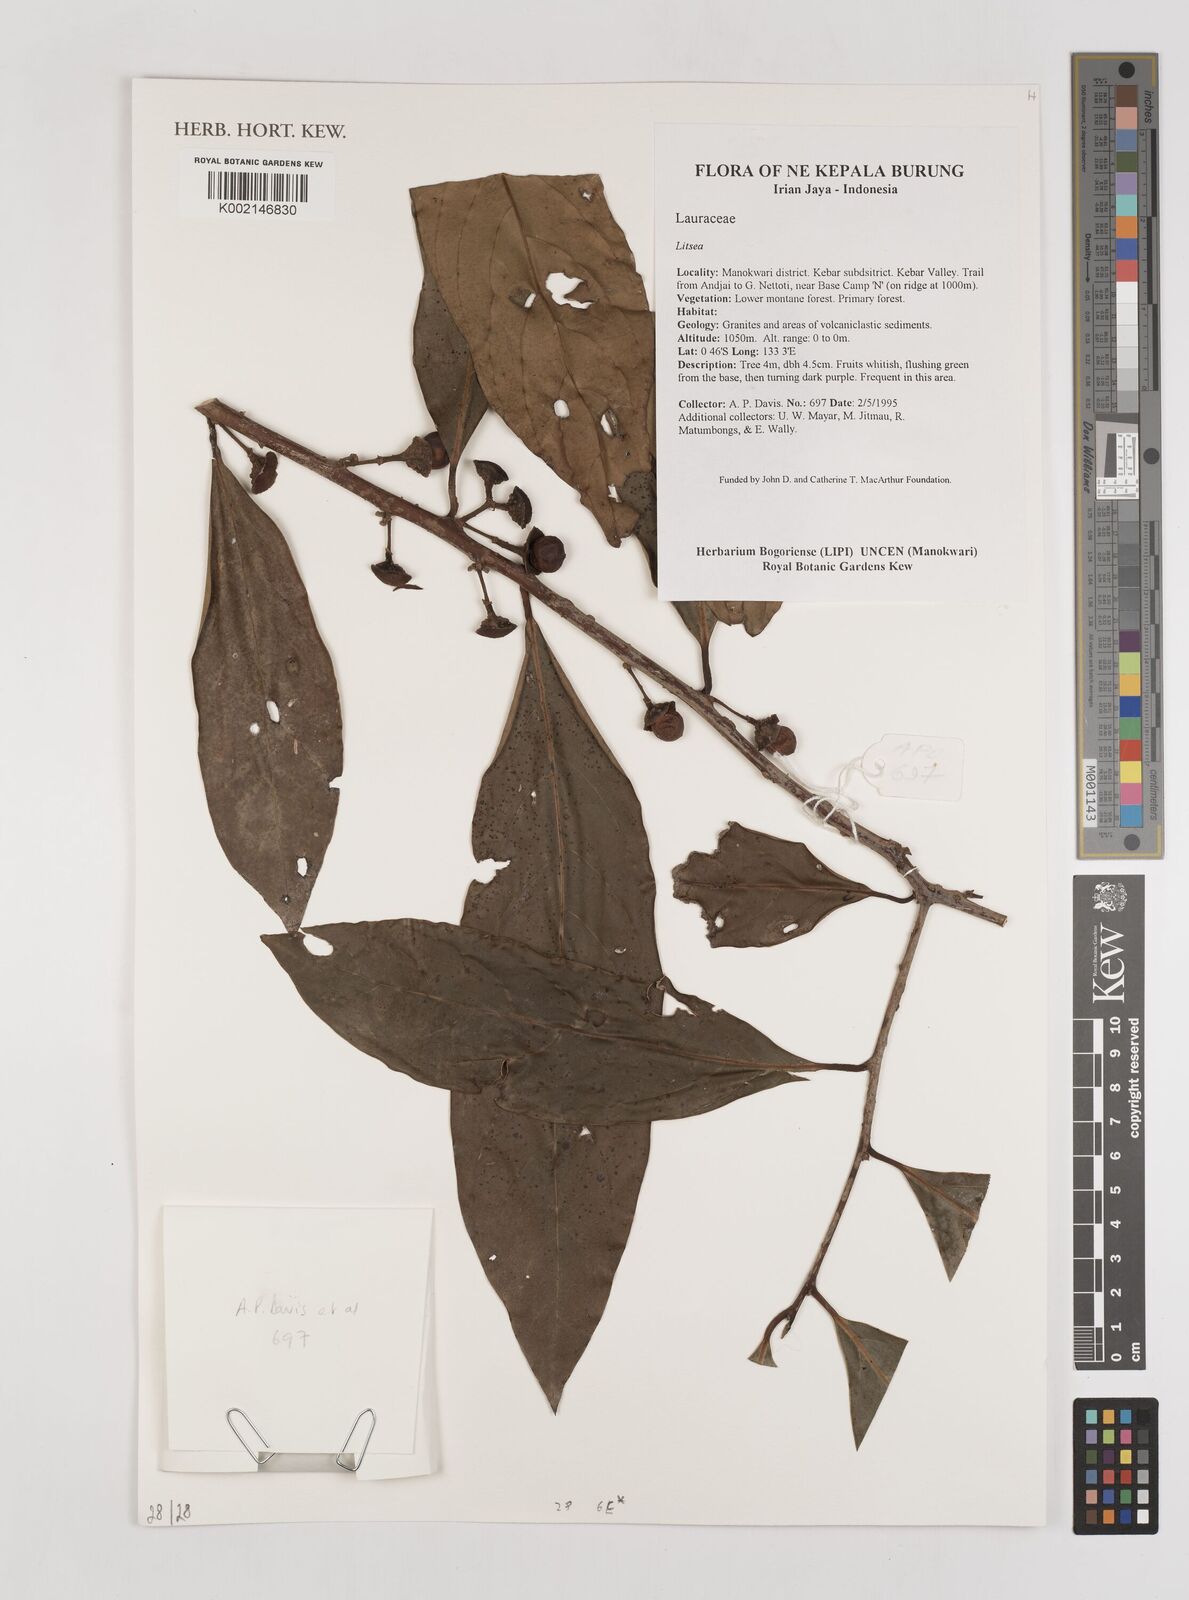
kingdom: Plantae
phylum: Tracheophyta
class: Magnoliopsida
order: Laurales
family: Lauraceae
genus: Litsea
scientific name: Litsea
